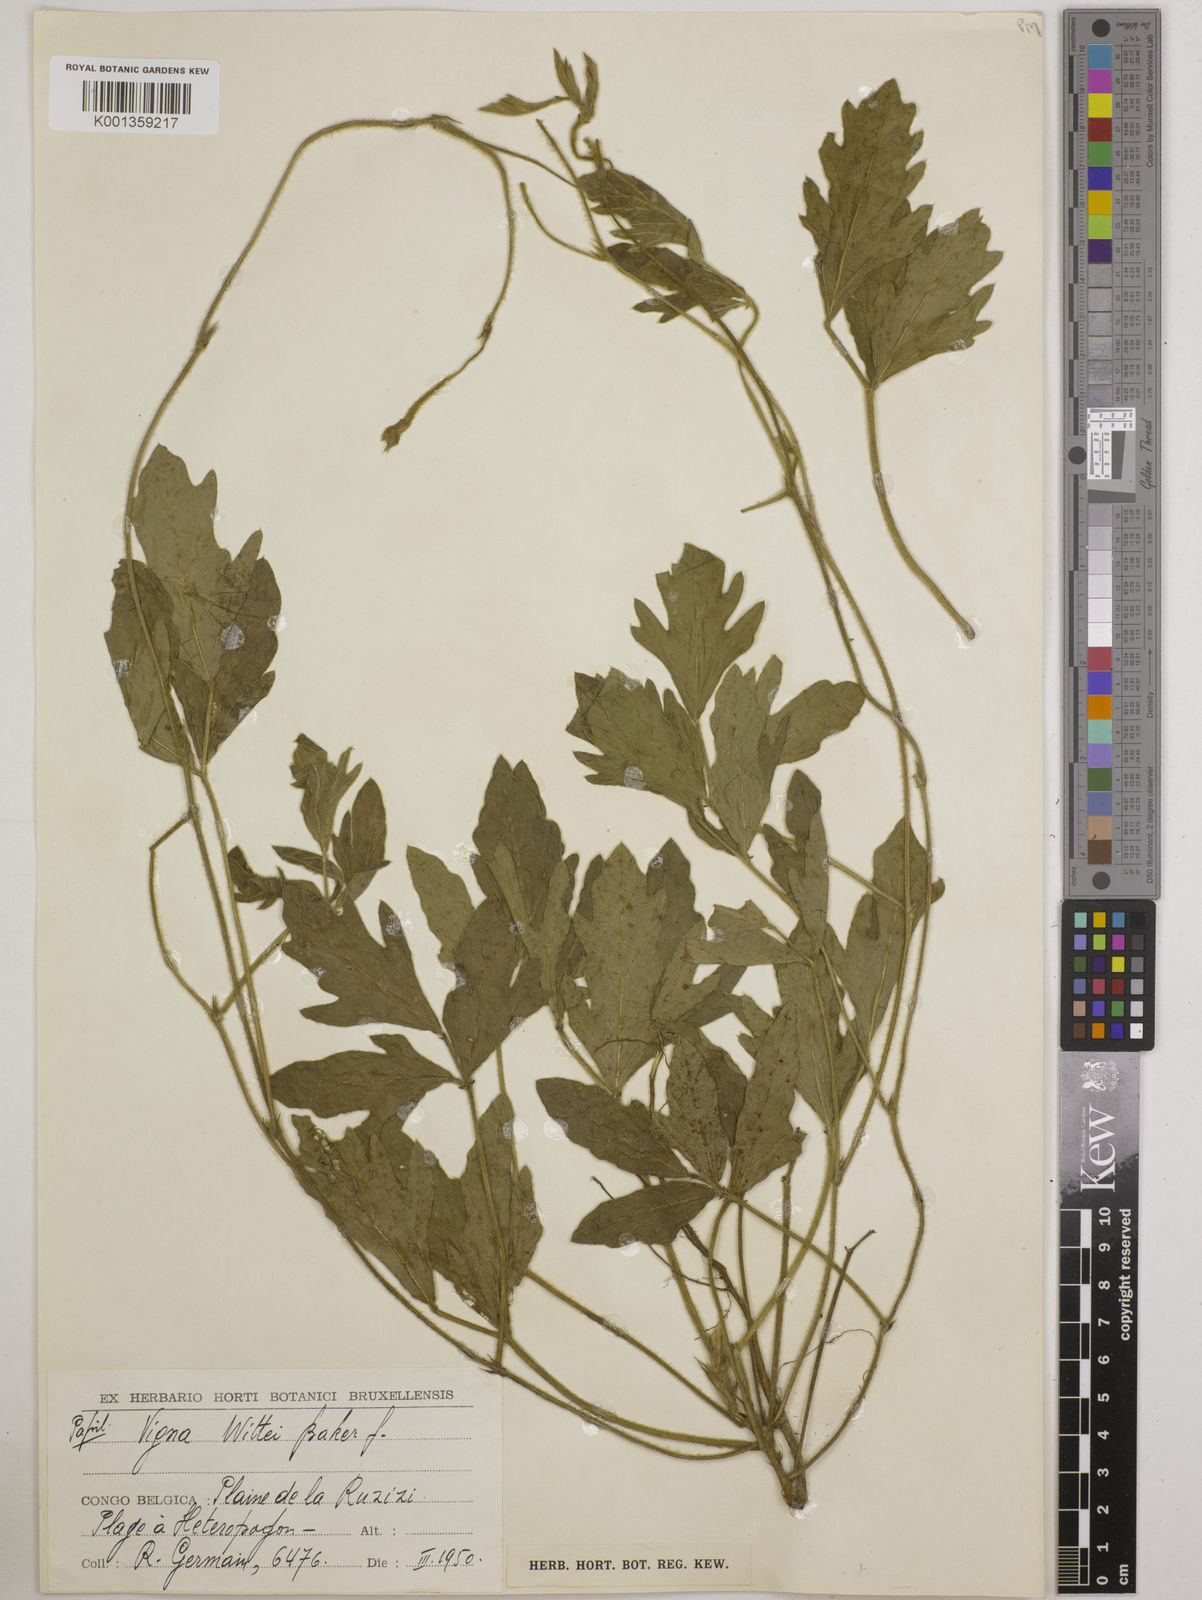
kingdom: Plantae
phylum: Tracheophyta
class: Magnoliopsida
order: Fabales
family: Fabaceae
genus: Vigna
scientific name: Vigna wittei
